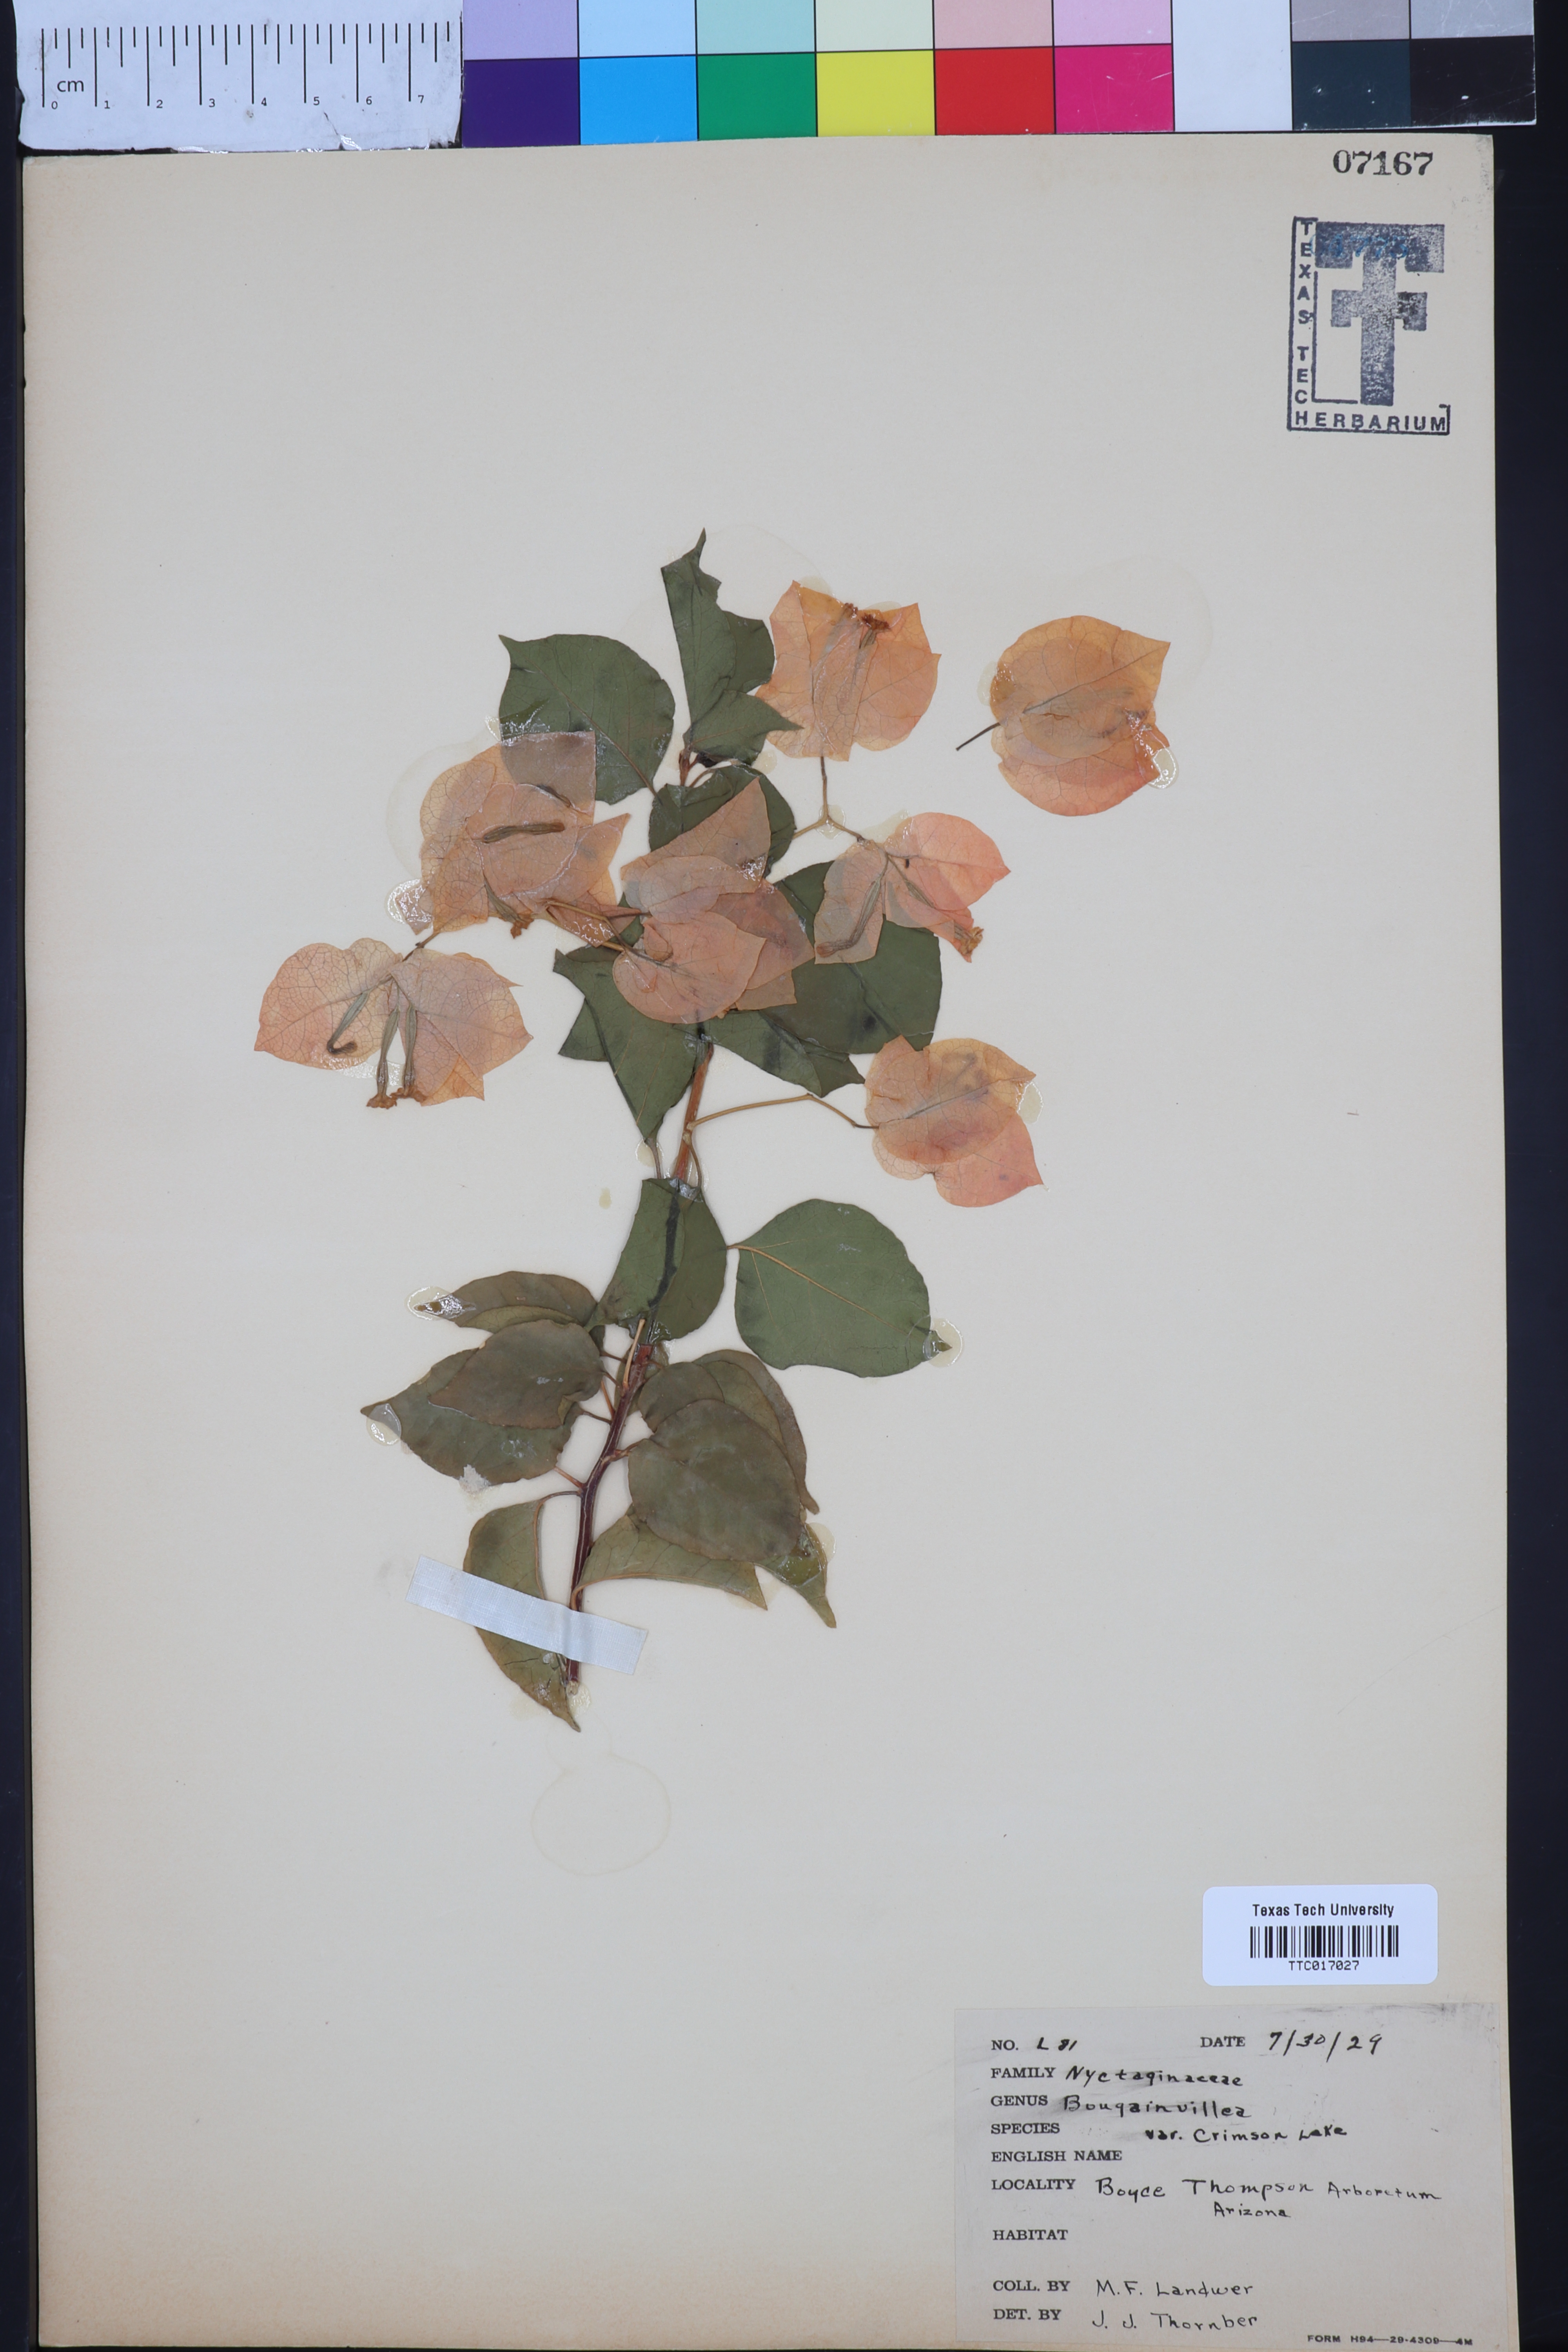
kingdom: Plantae
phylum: Tracheophyta
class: Magnoliopsida
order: Caryophyllales
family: Nyctaginaceae
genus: Bougainvillea
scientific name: Bougainvillea
